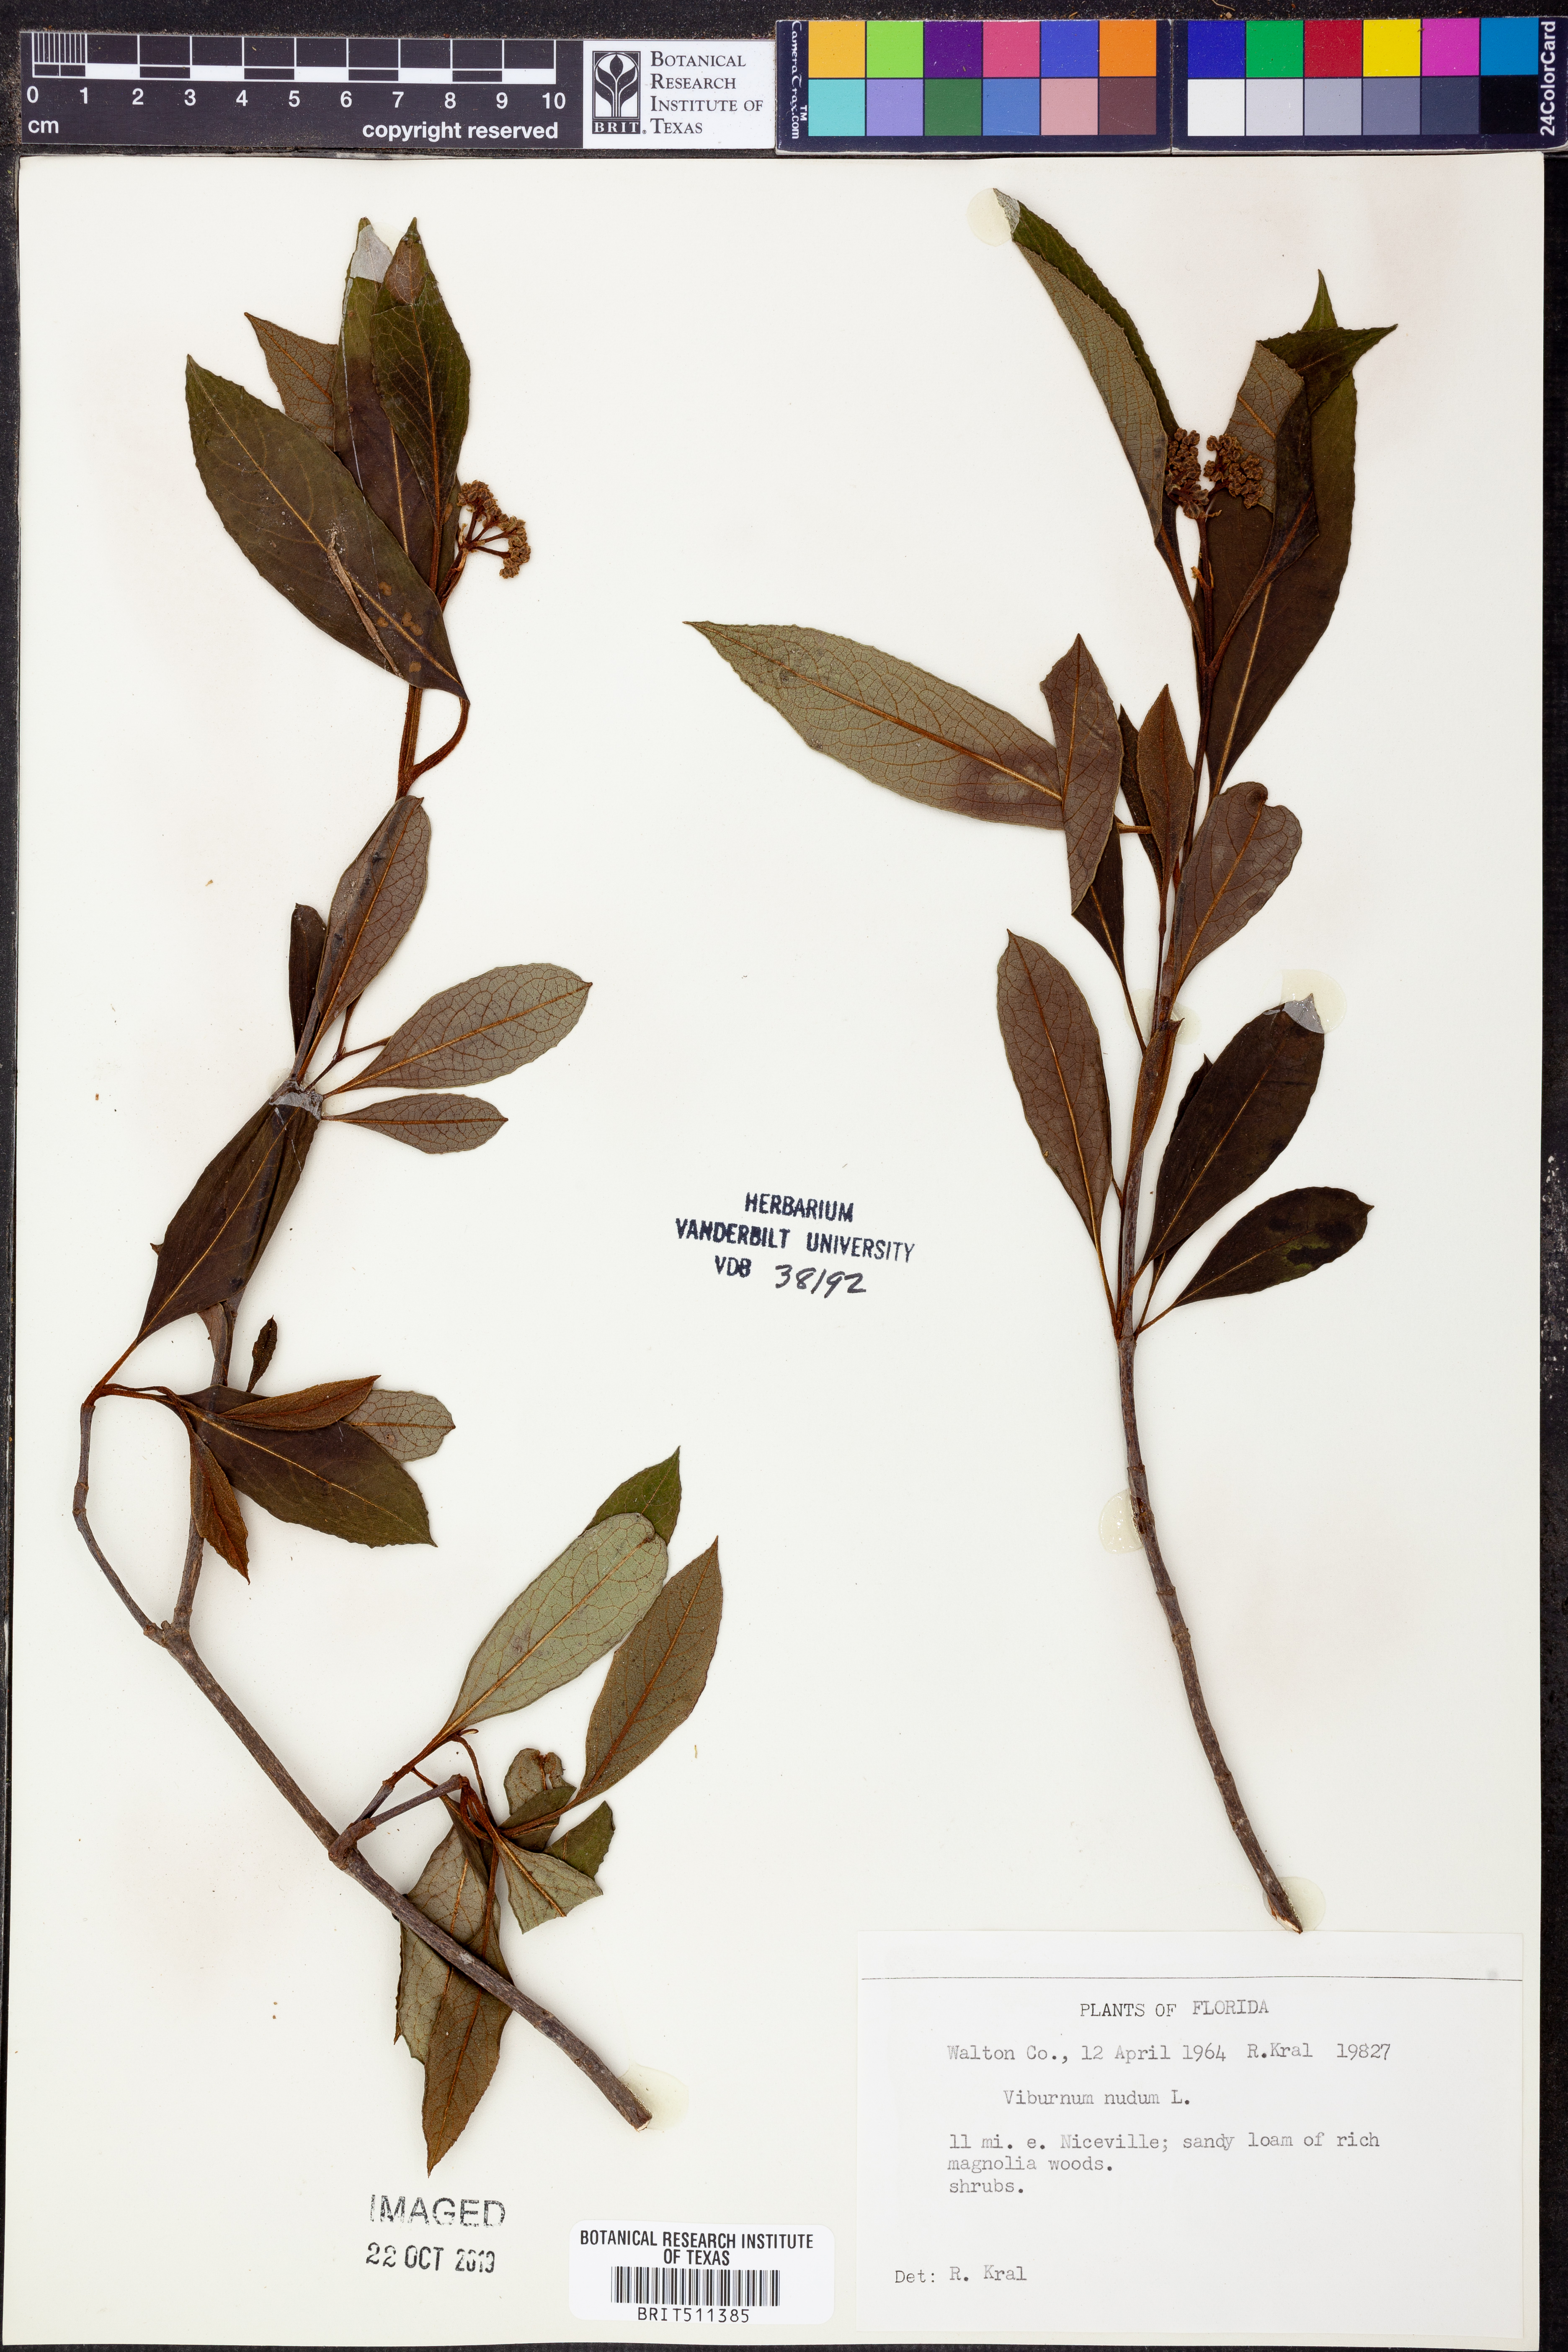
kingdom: Plantae
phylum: Tracheophyta
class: Magnoliopsida
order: Dipsacales
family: Viburnaceae
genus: Viburnum
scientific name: Viburnum nudum
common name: Possum haw
